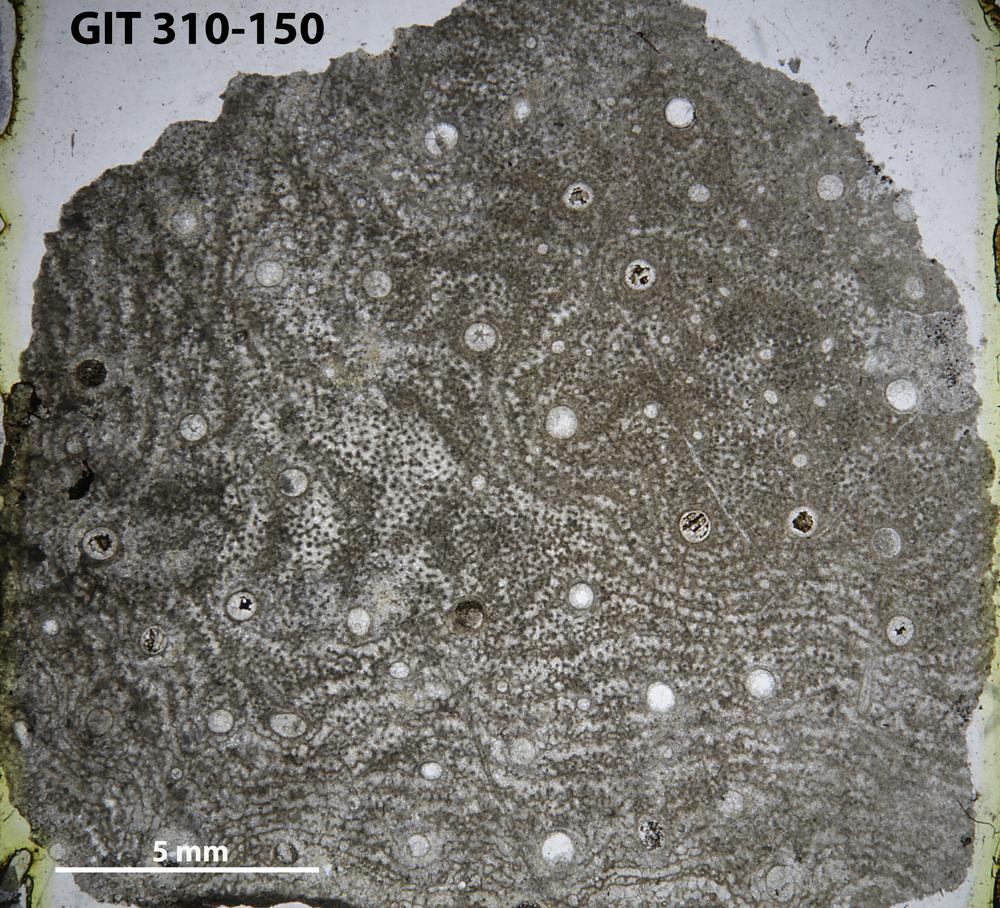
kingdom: Animalia
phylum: Porifera
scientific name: Porifera
